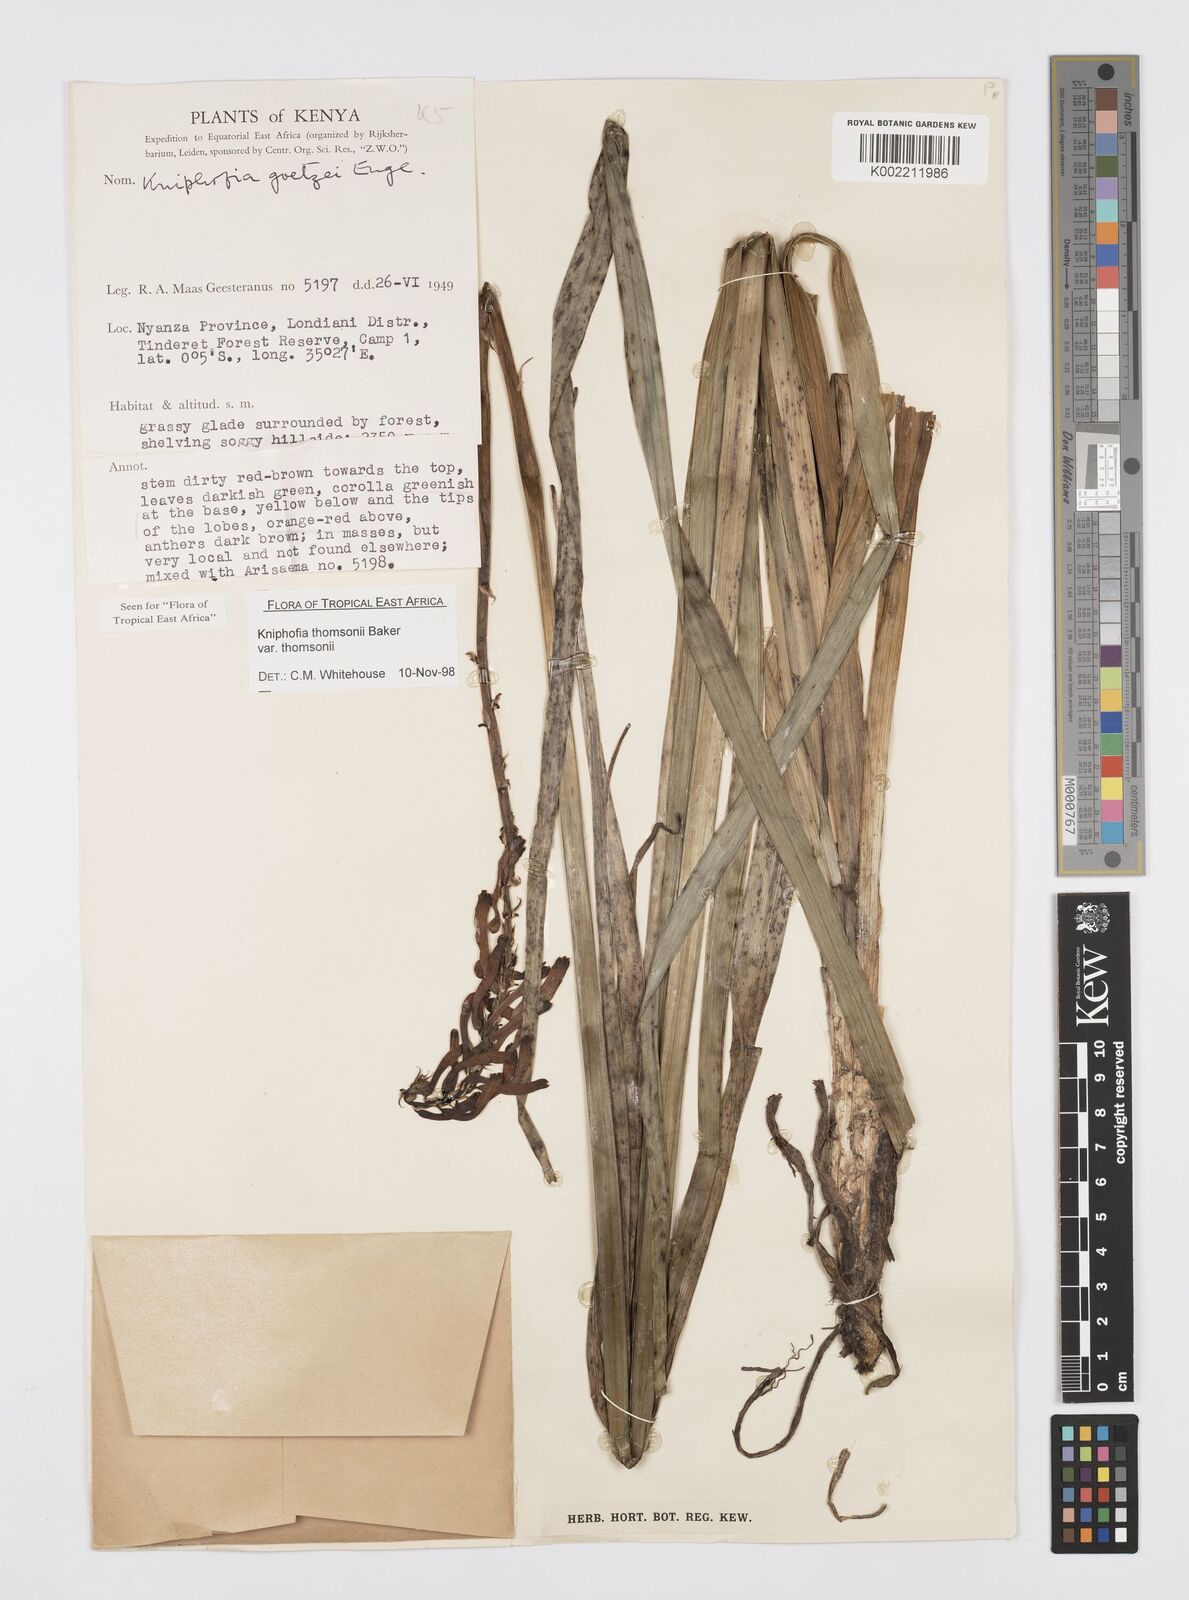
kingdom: Plantae
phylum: Tracheophyta
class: Liliopsida
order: Asparagales
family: Asphodelaceae
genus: Kniphofia
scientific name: Kniphofia thomsonii
